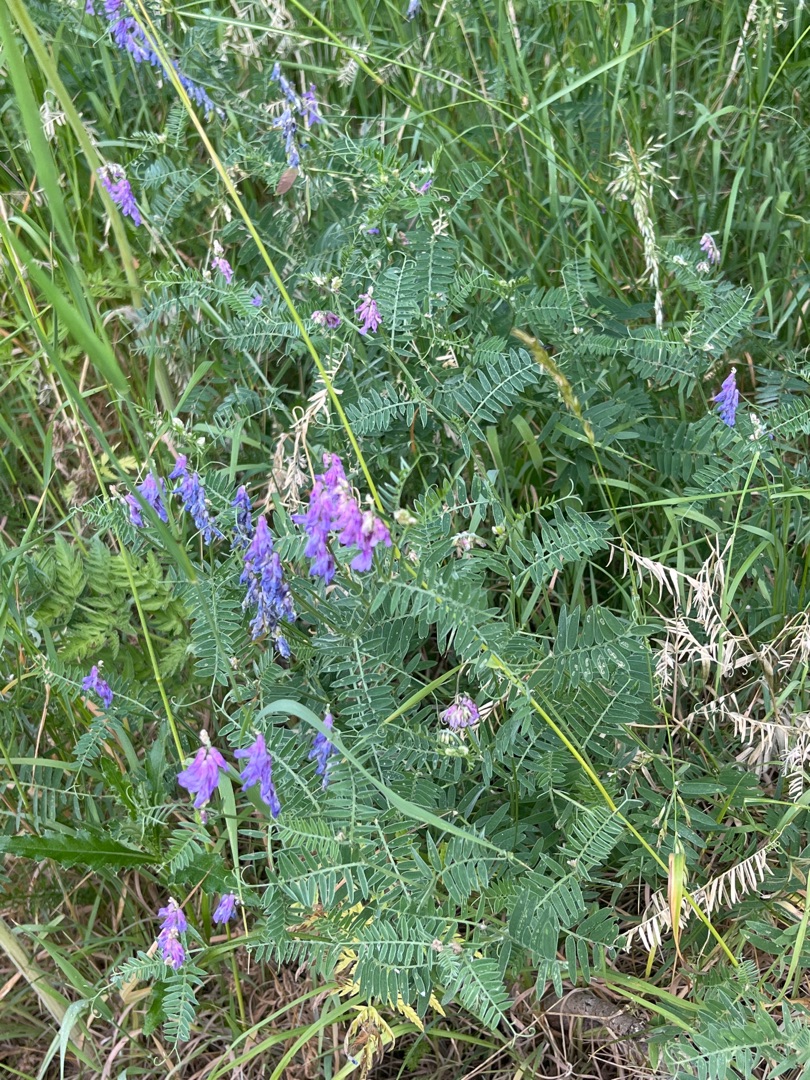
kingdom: Plantae
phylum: Tracheophyta
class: Magnoliopsida
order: Fabales
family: Fabaceae
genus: Vicia
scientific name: Vicia cracca
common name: Muse-vikke
